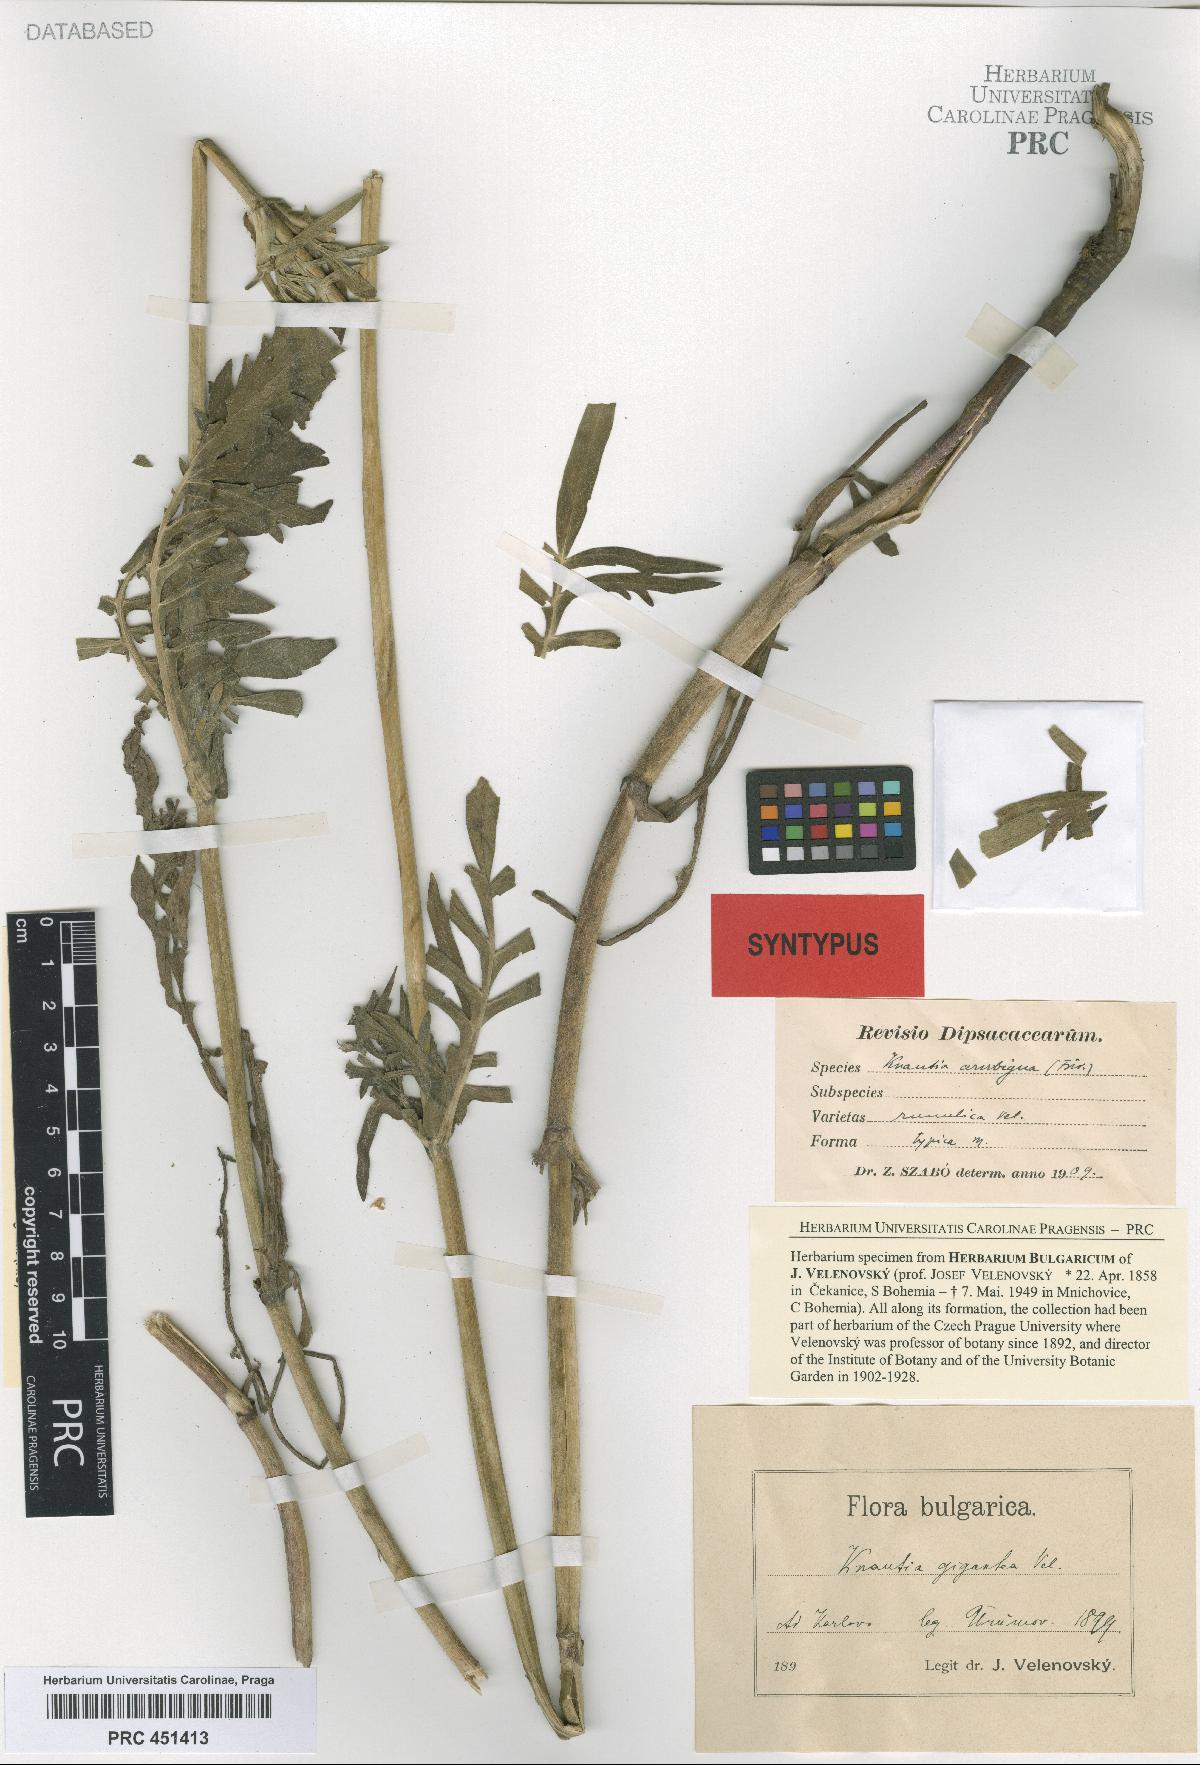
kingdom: Plantae
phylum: Tracheophyta
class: Magnoliopsida
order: Dipsacales
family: Caprifoliaceae
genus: Knautia
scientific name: Knautia collina
